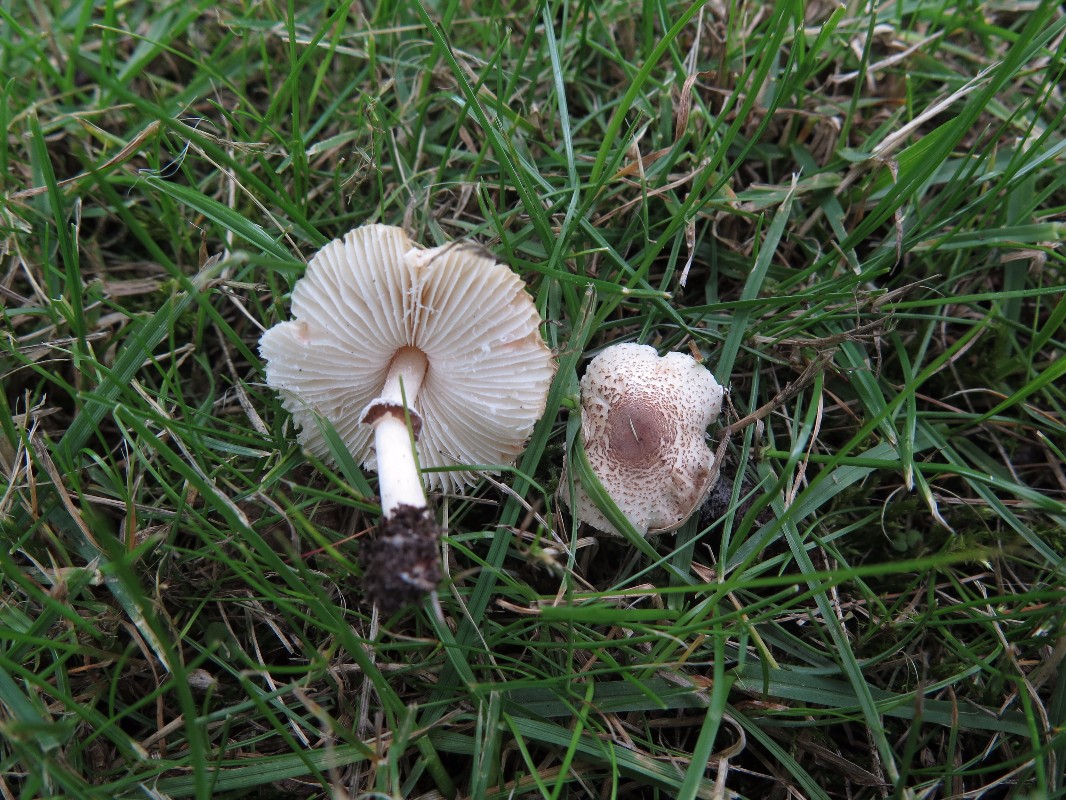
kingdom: Fungi
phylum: Basidiomycota
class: Agaricomycetes
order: Agaricales
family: Agaricaceae
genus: Lepiota
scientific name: Lepiota lilacea
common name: lillabrun parasolhat
